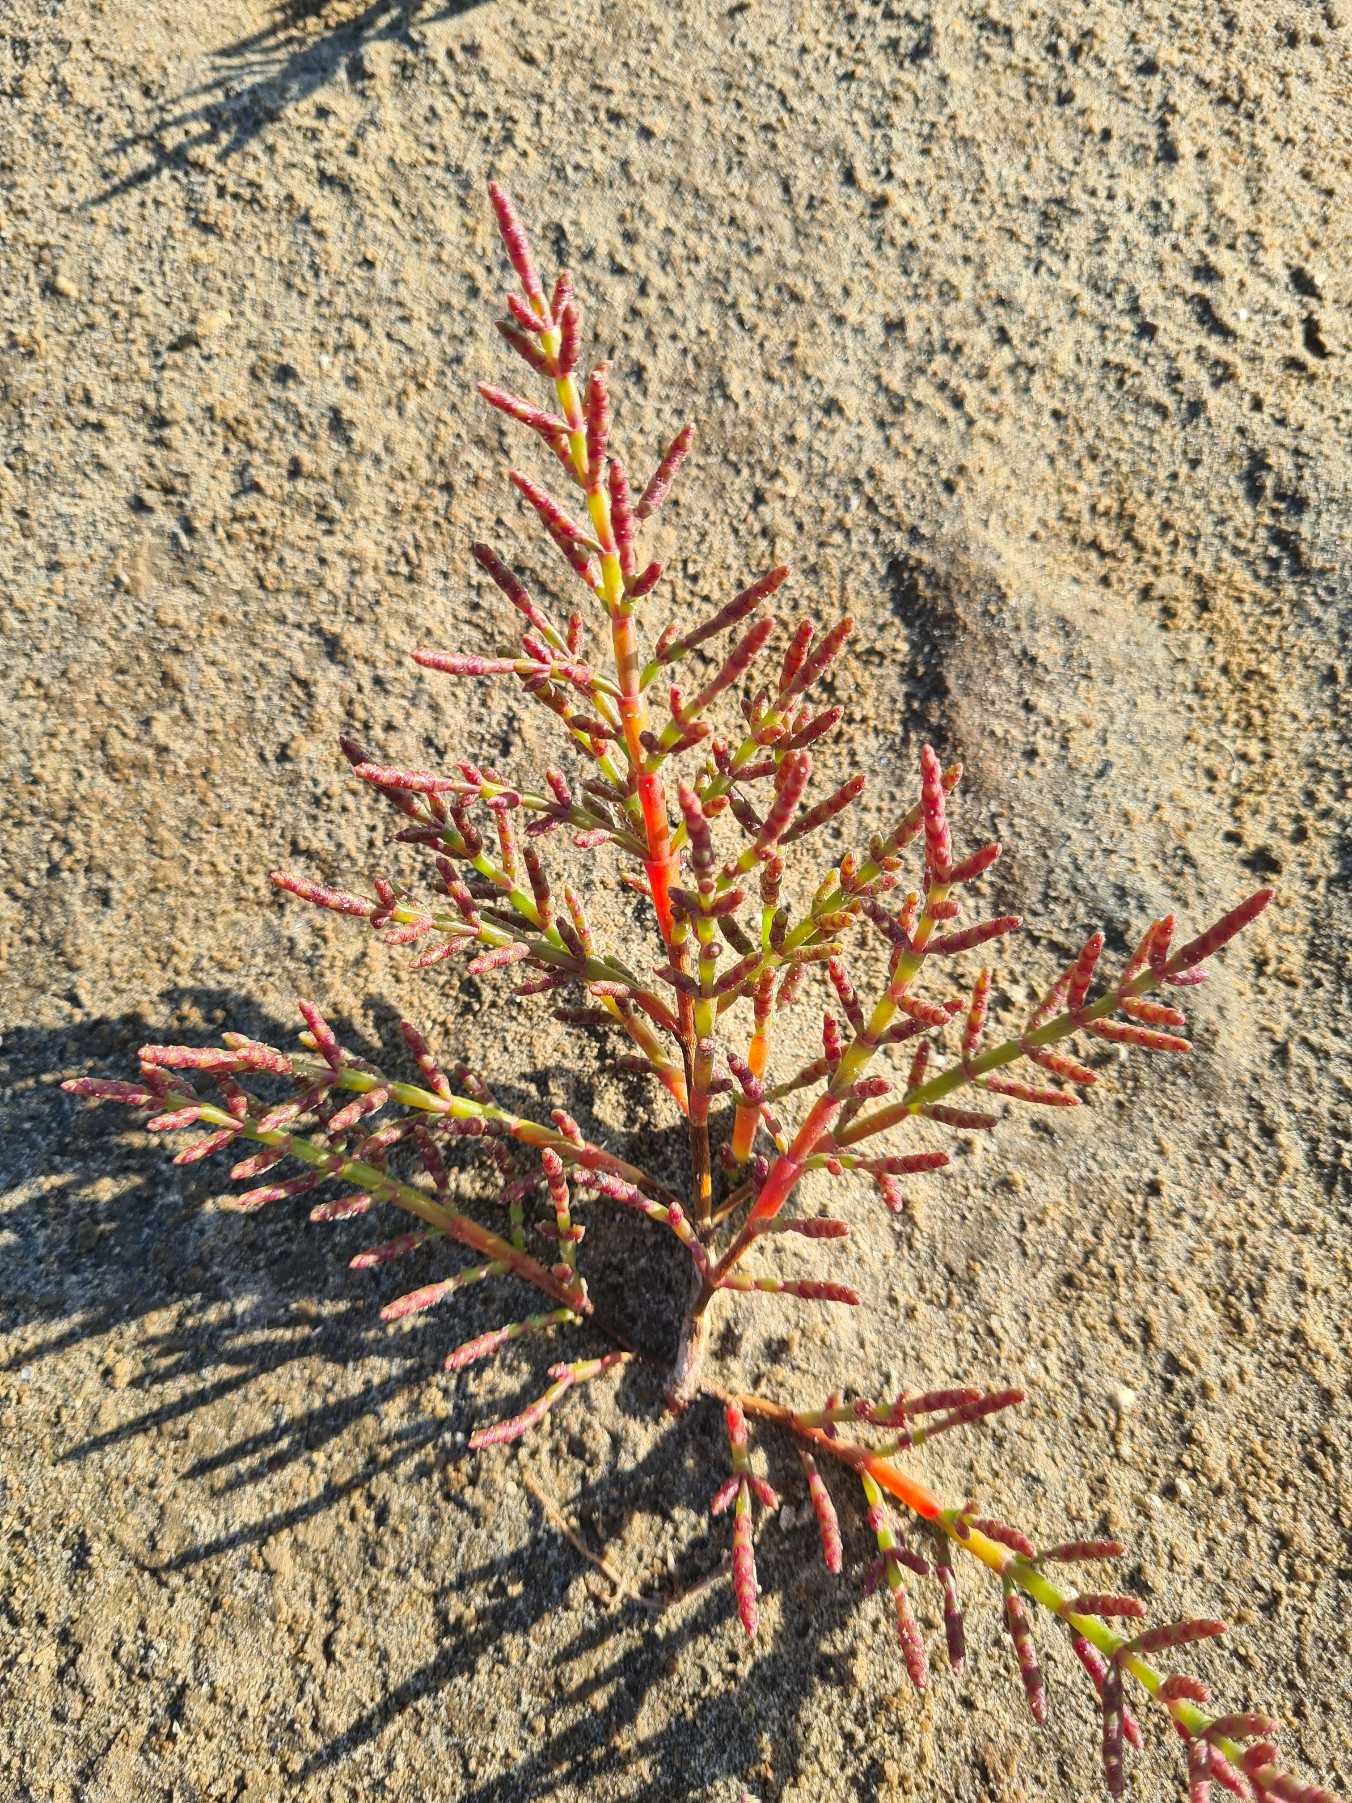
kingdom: Plantae
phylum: Tracheophyta
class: Magnoliopsida
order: Caryophyllales
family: Amaranthaceae
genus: Salicornia
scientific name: Salicornia procumbens
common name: Langakset salturt
